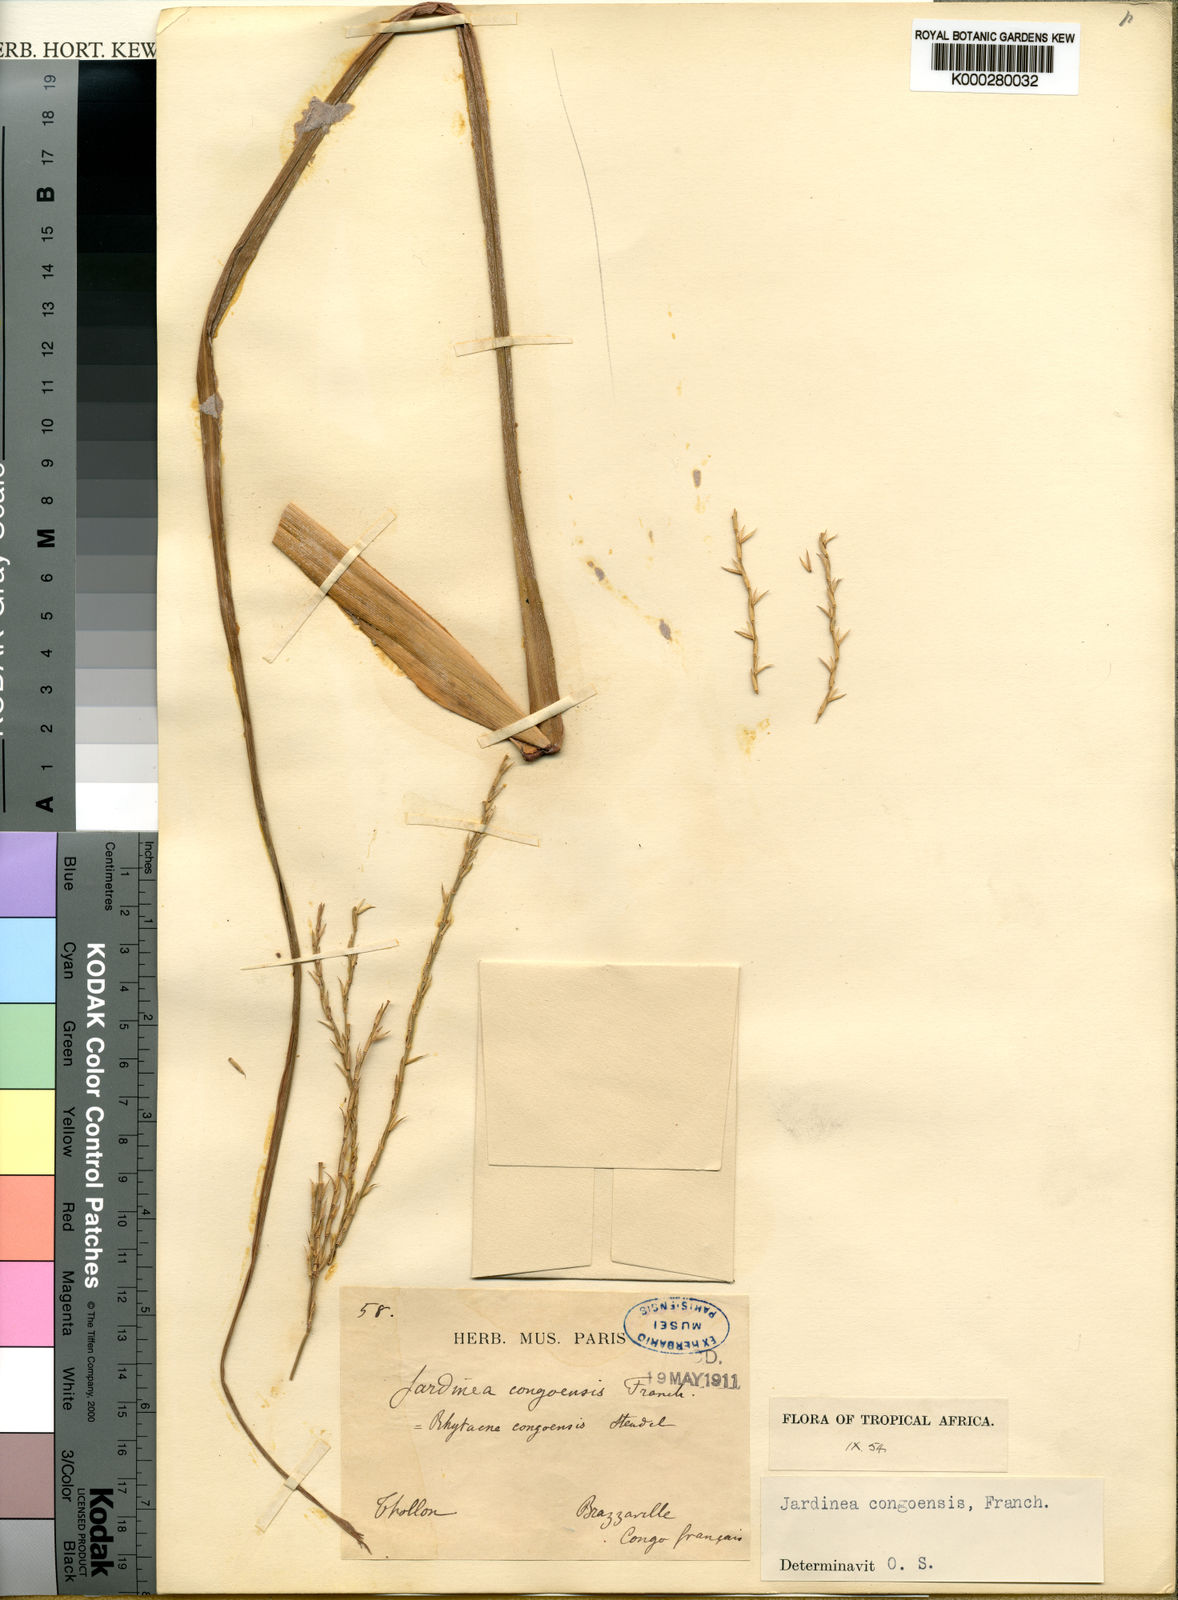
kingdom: Plantae
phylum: Tracheophyta
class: Liliopsida
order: Poales
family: Poaceae
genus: Phacelurus
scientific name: Phacelurus gabonensis
